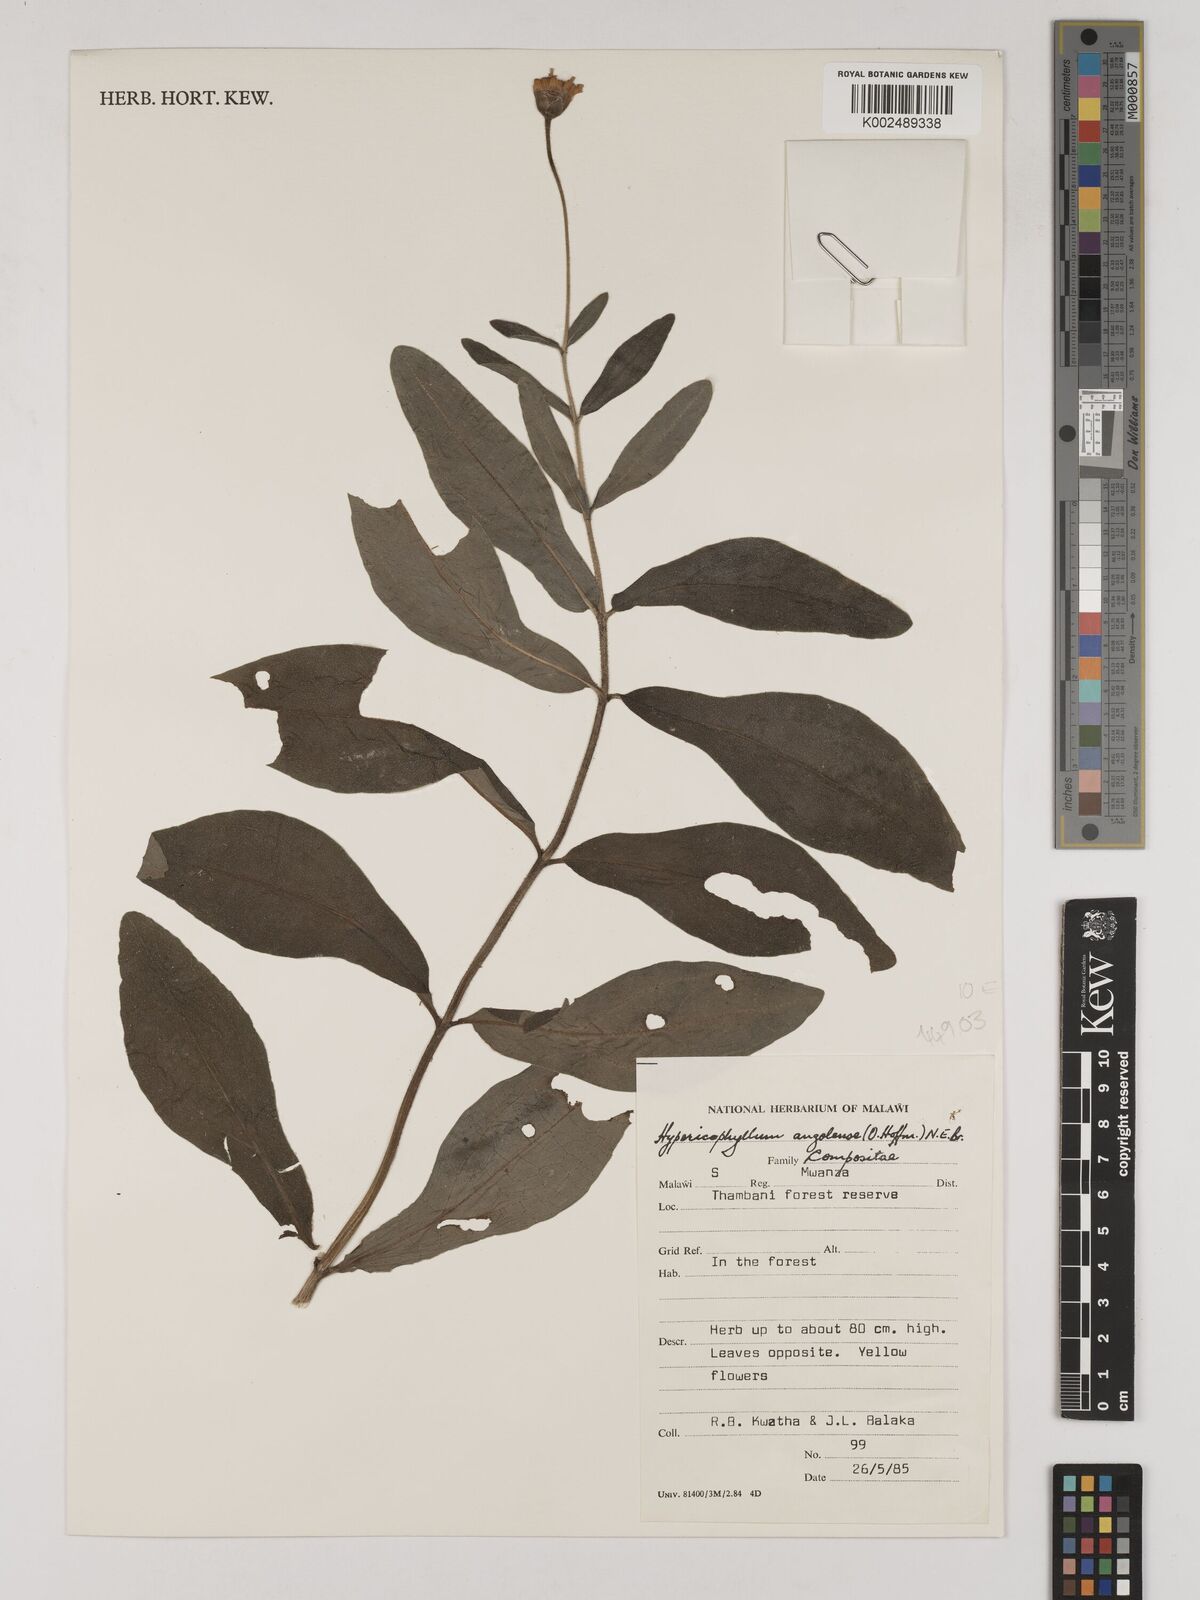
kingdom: Plantae
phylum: Tracheophyta
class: Magnoliopsida
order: Asterales
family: Asteraceae
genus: Hypericophyllum
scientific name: Hypericophyllum angolense
